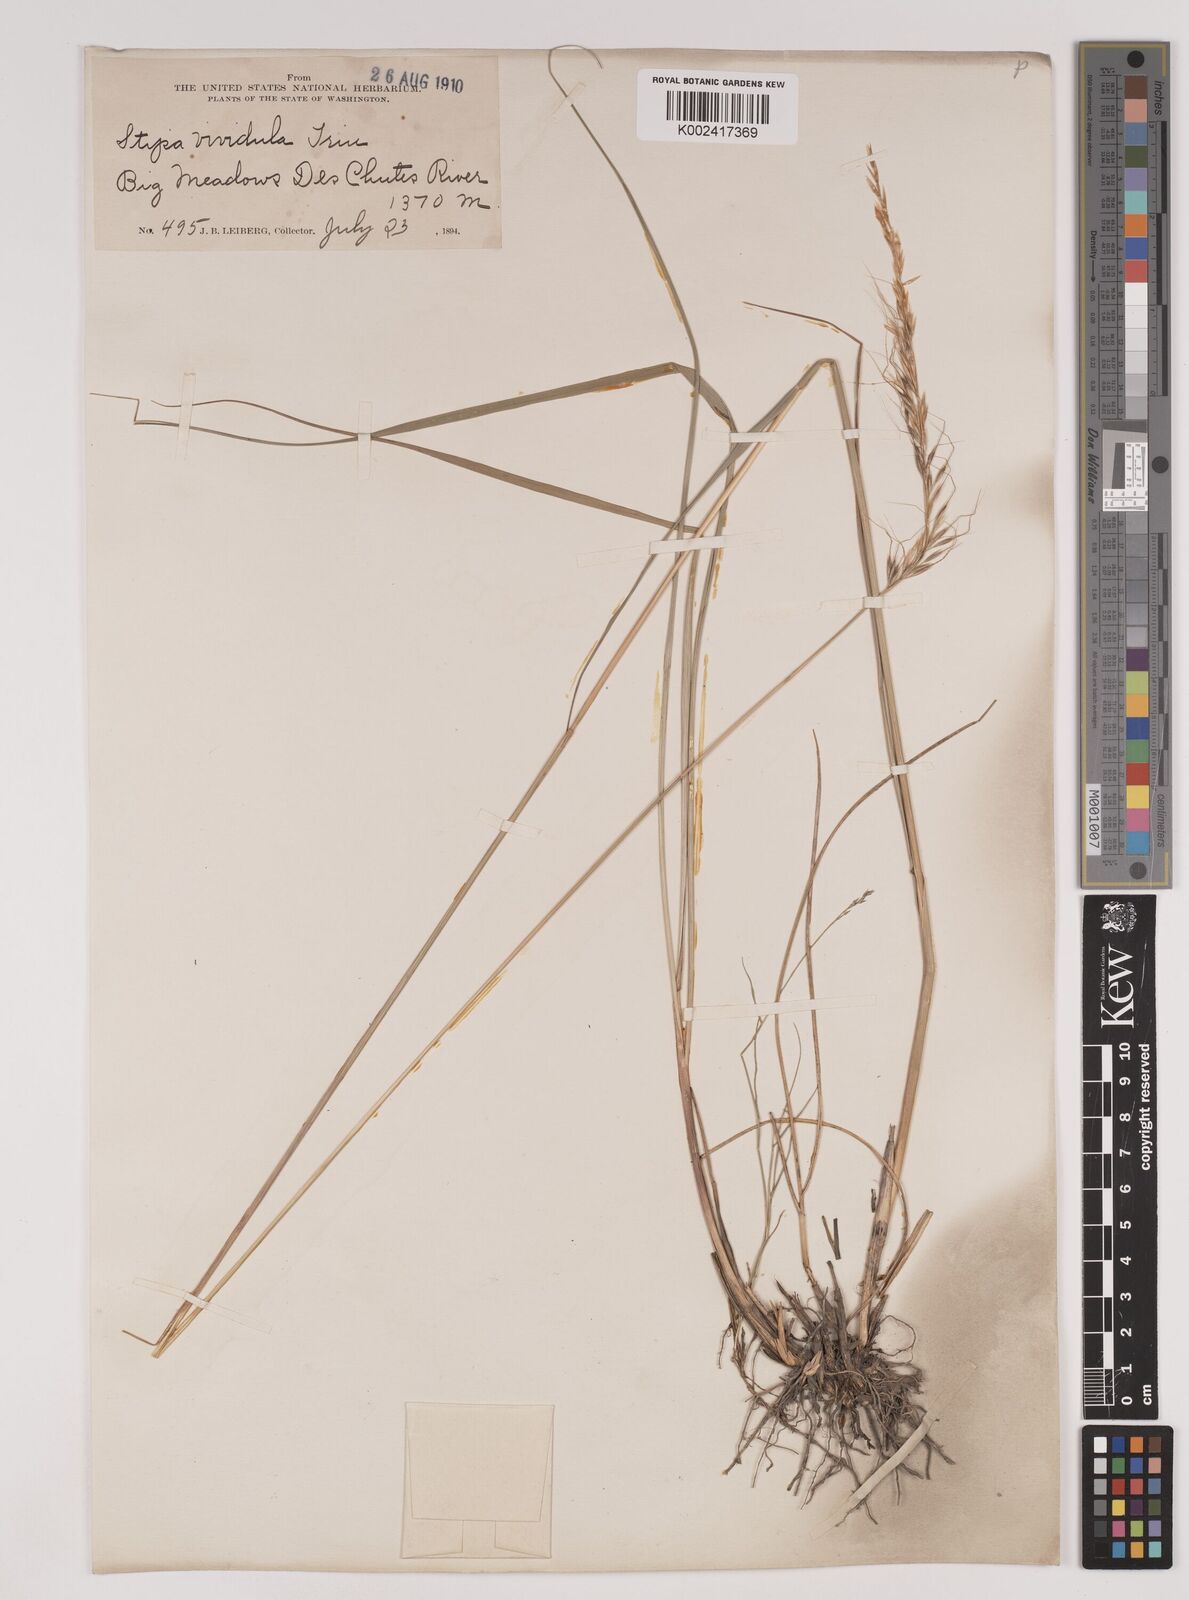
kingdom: Plantae
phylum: Tracheophyta
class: Liliopsida
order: Poales
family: Poaceae
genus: Nassella
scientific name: Nassella viridula
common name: Green needlegrass
